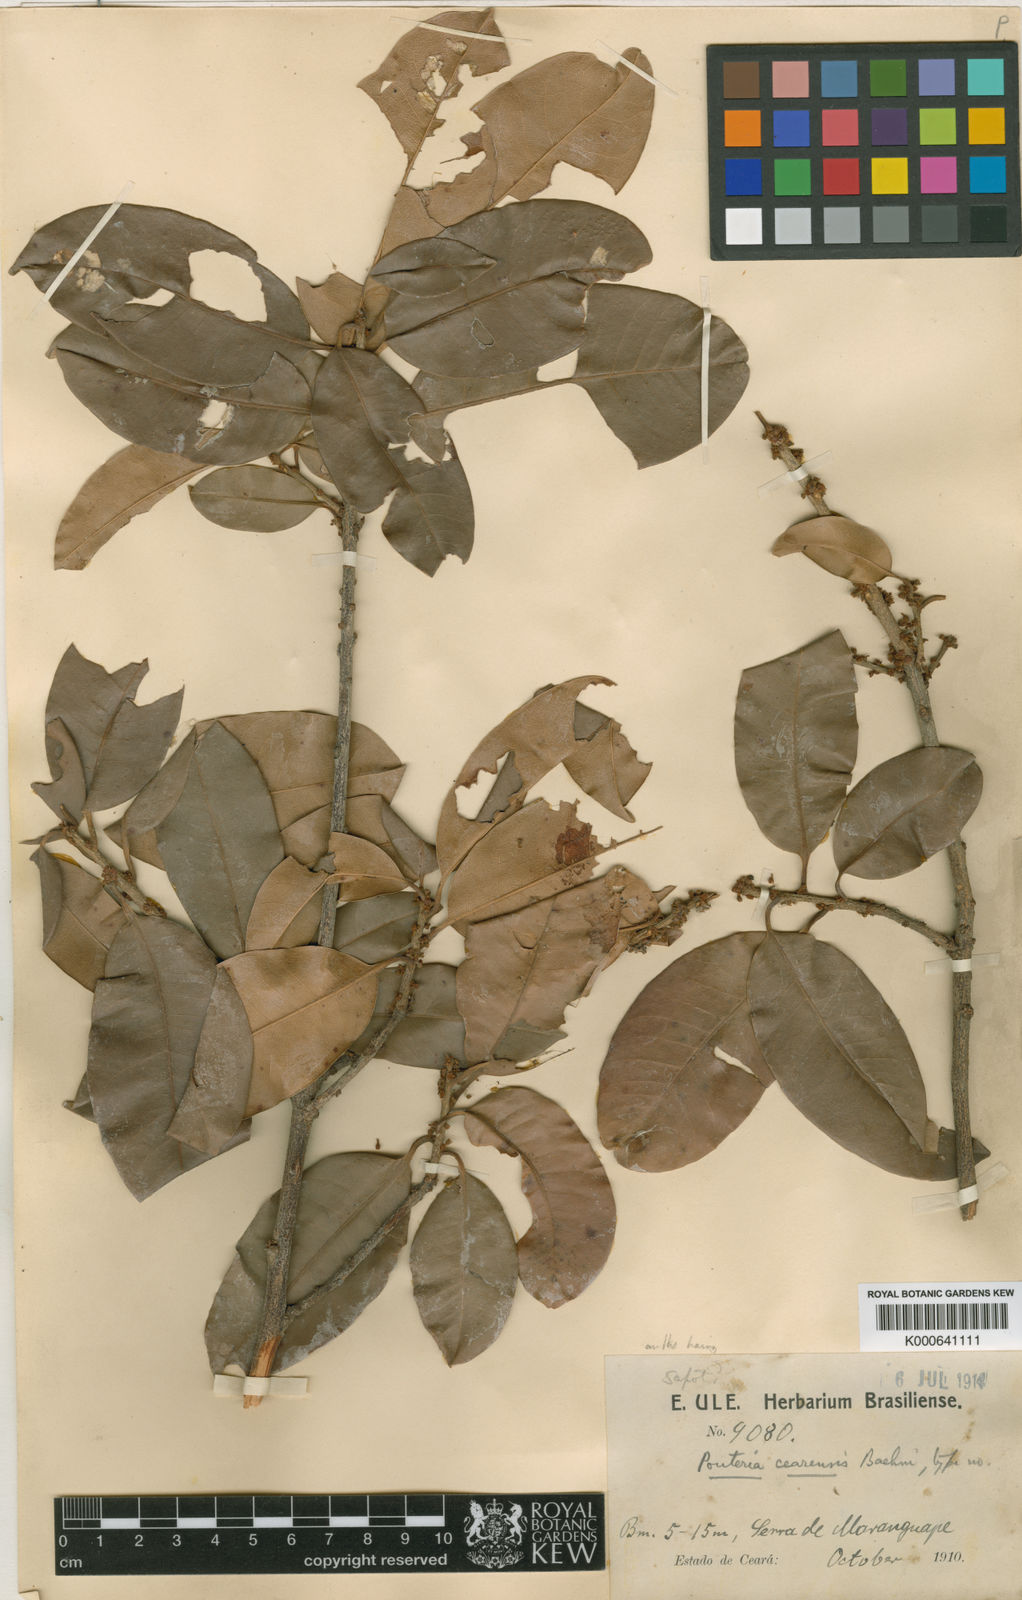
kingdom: Plantae
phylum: Tracheophyta
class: Magnoliopsida
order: Ericales
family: Sapotaceae
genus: Pouteria
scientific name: Pouteria reticulata
